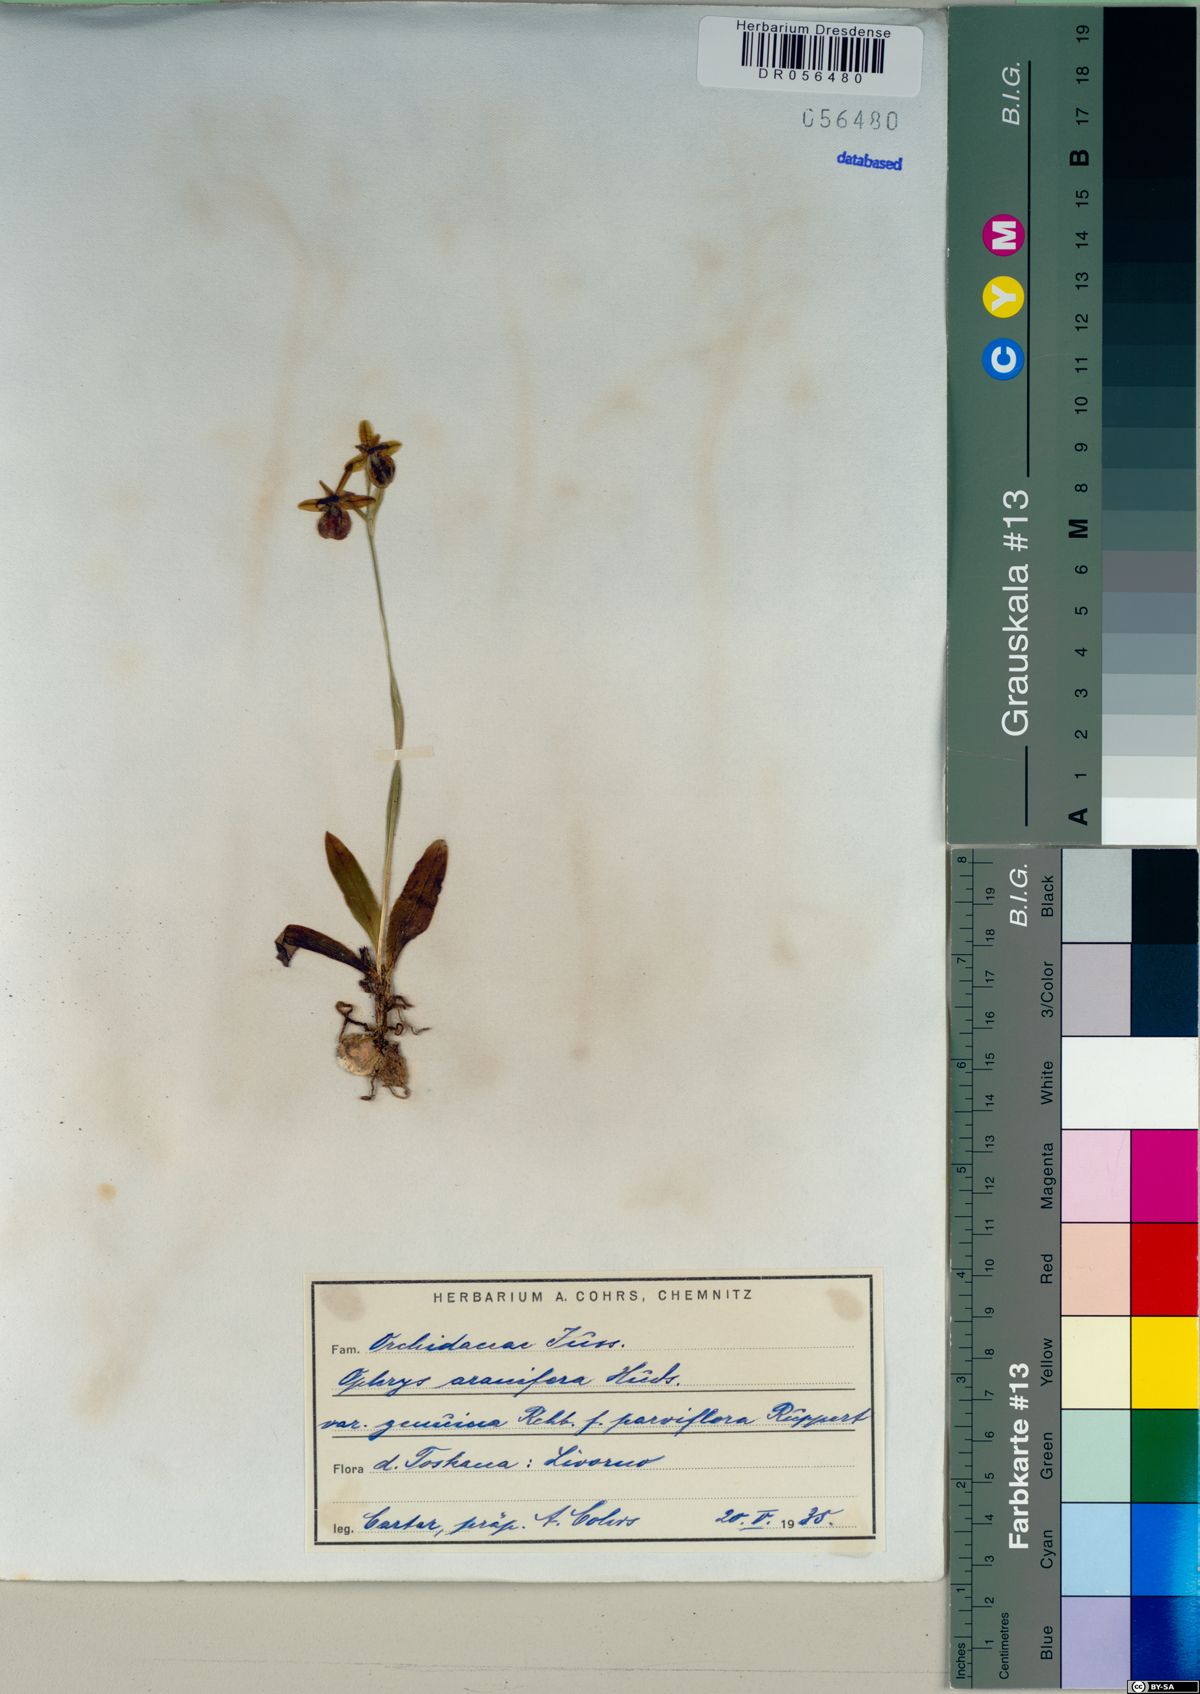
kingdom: Plantae
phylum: Tracheophyta
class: Liliopsida
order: Asparagales
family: Orchidaceae
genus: Ophrys
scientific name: Ophrys sphegodes
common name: Early spider-orchid
